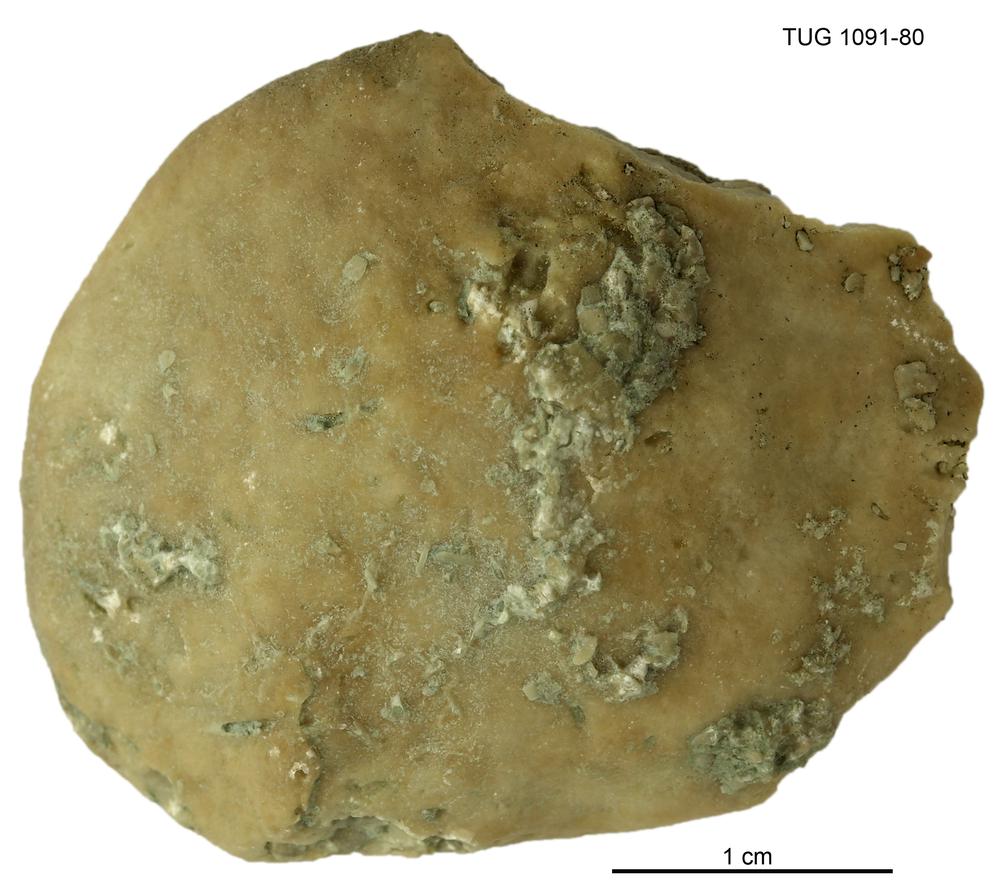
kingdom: Animalia
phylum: Porifera
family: Stromatoporidae
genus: Stromatopora
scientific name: Stromatopora
